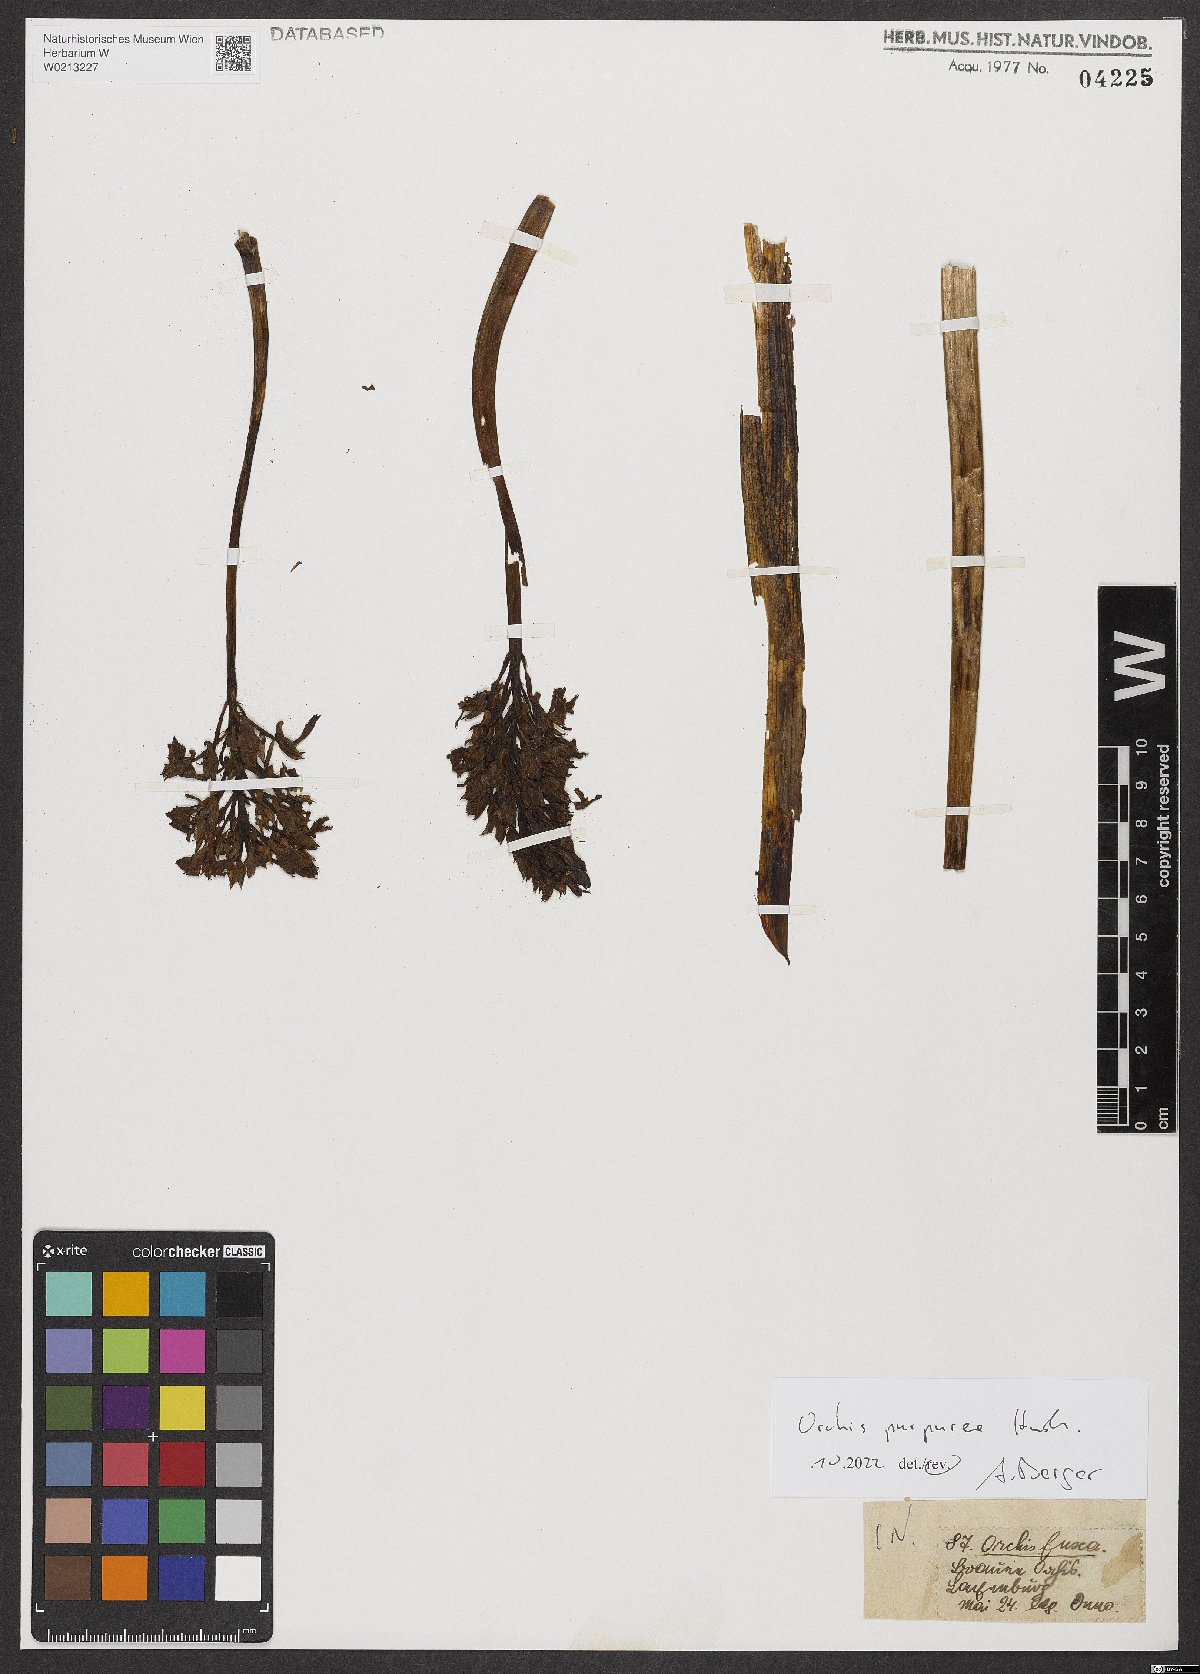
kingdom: Plantae
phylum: Tracheophyta
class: Liliopsida
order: Asparagales
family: Orchidaceae
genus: Orchis
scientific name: Orchis purpurea
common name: Lady orchid
